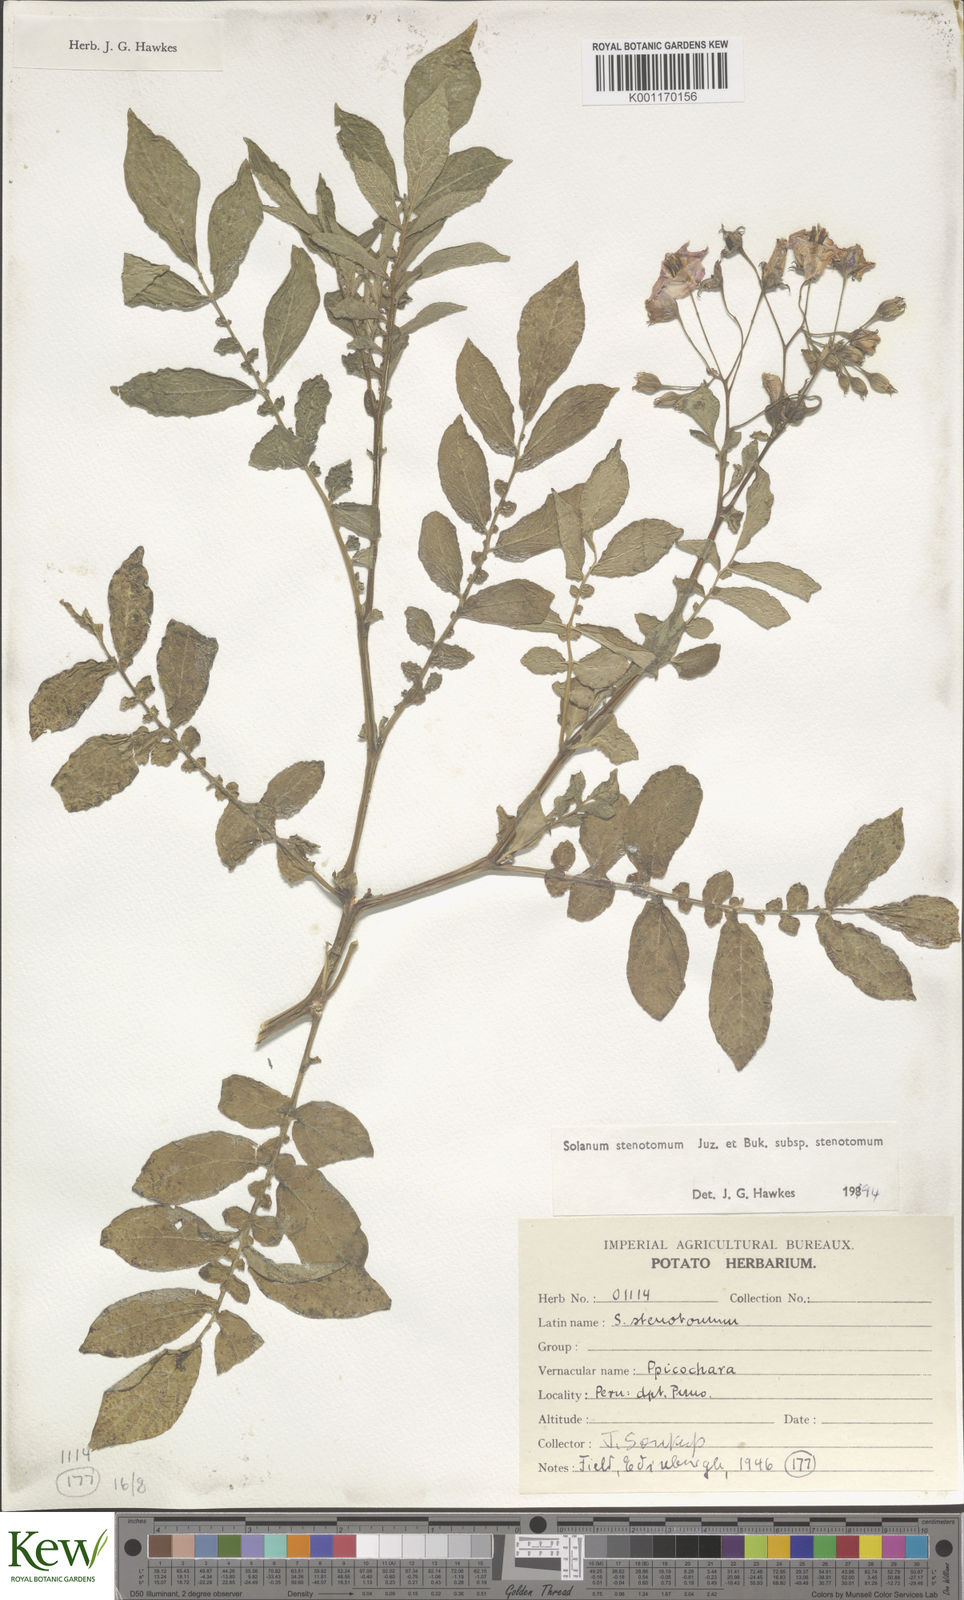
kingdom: Plantae
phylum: Tracheophyta
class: Magnoliopsida
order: Solanales
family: Solanaceae
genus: Solanum
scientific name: Solanum tuberosum
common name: Potato
